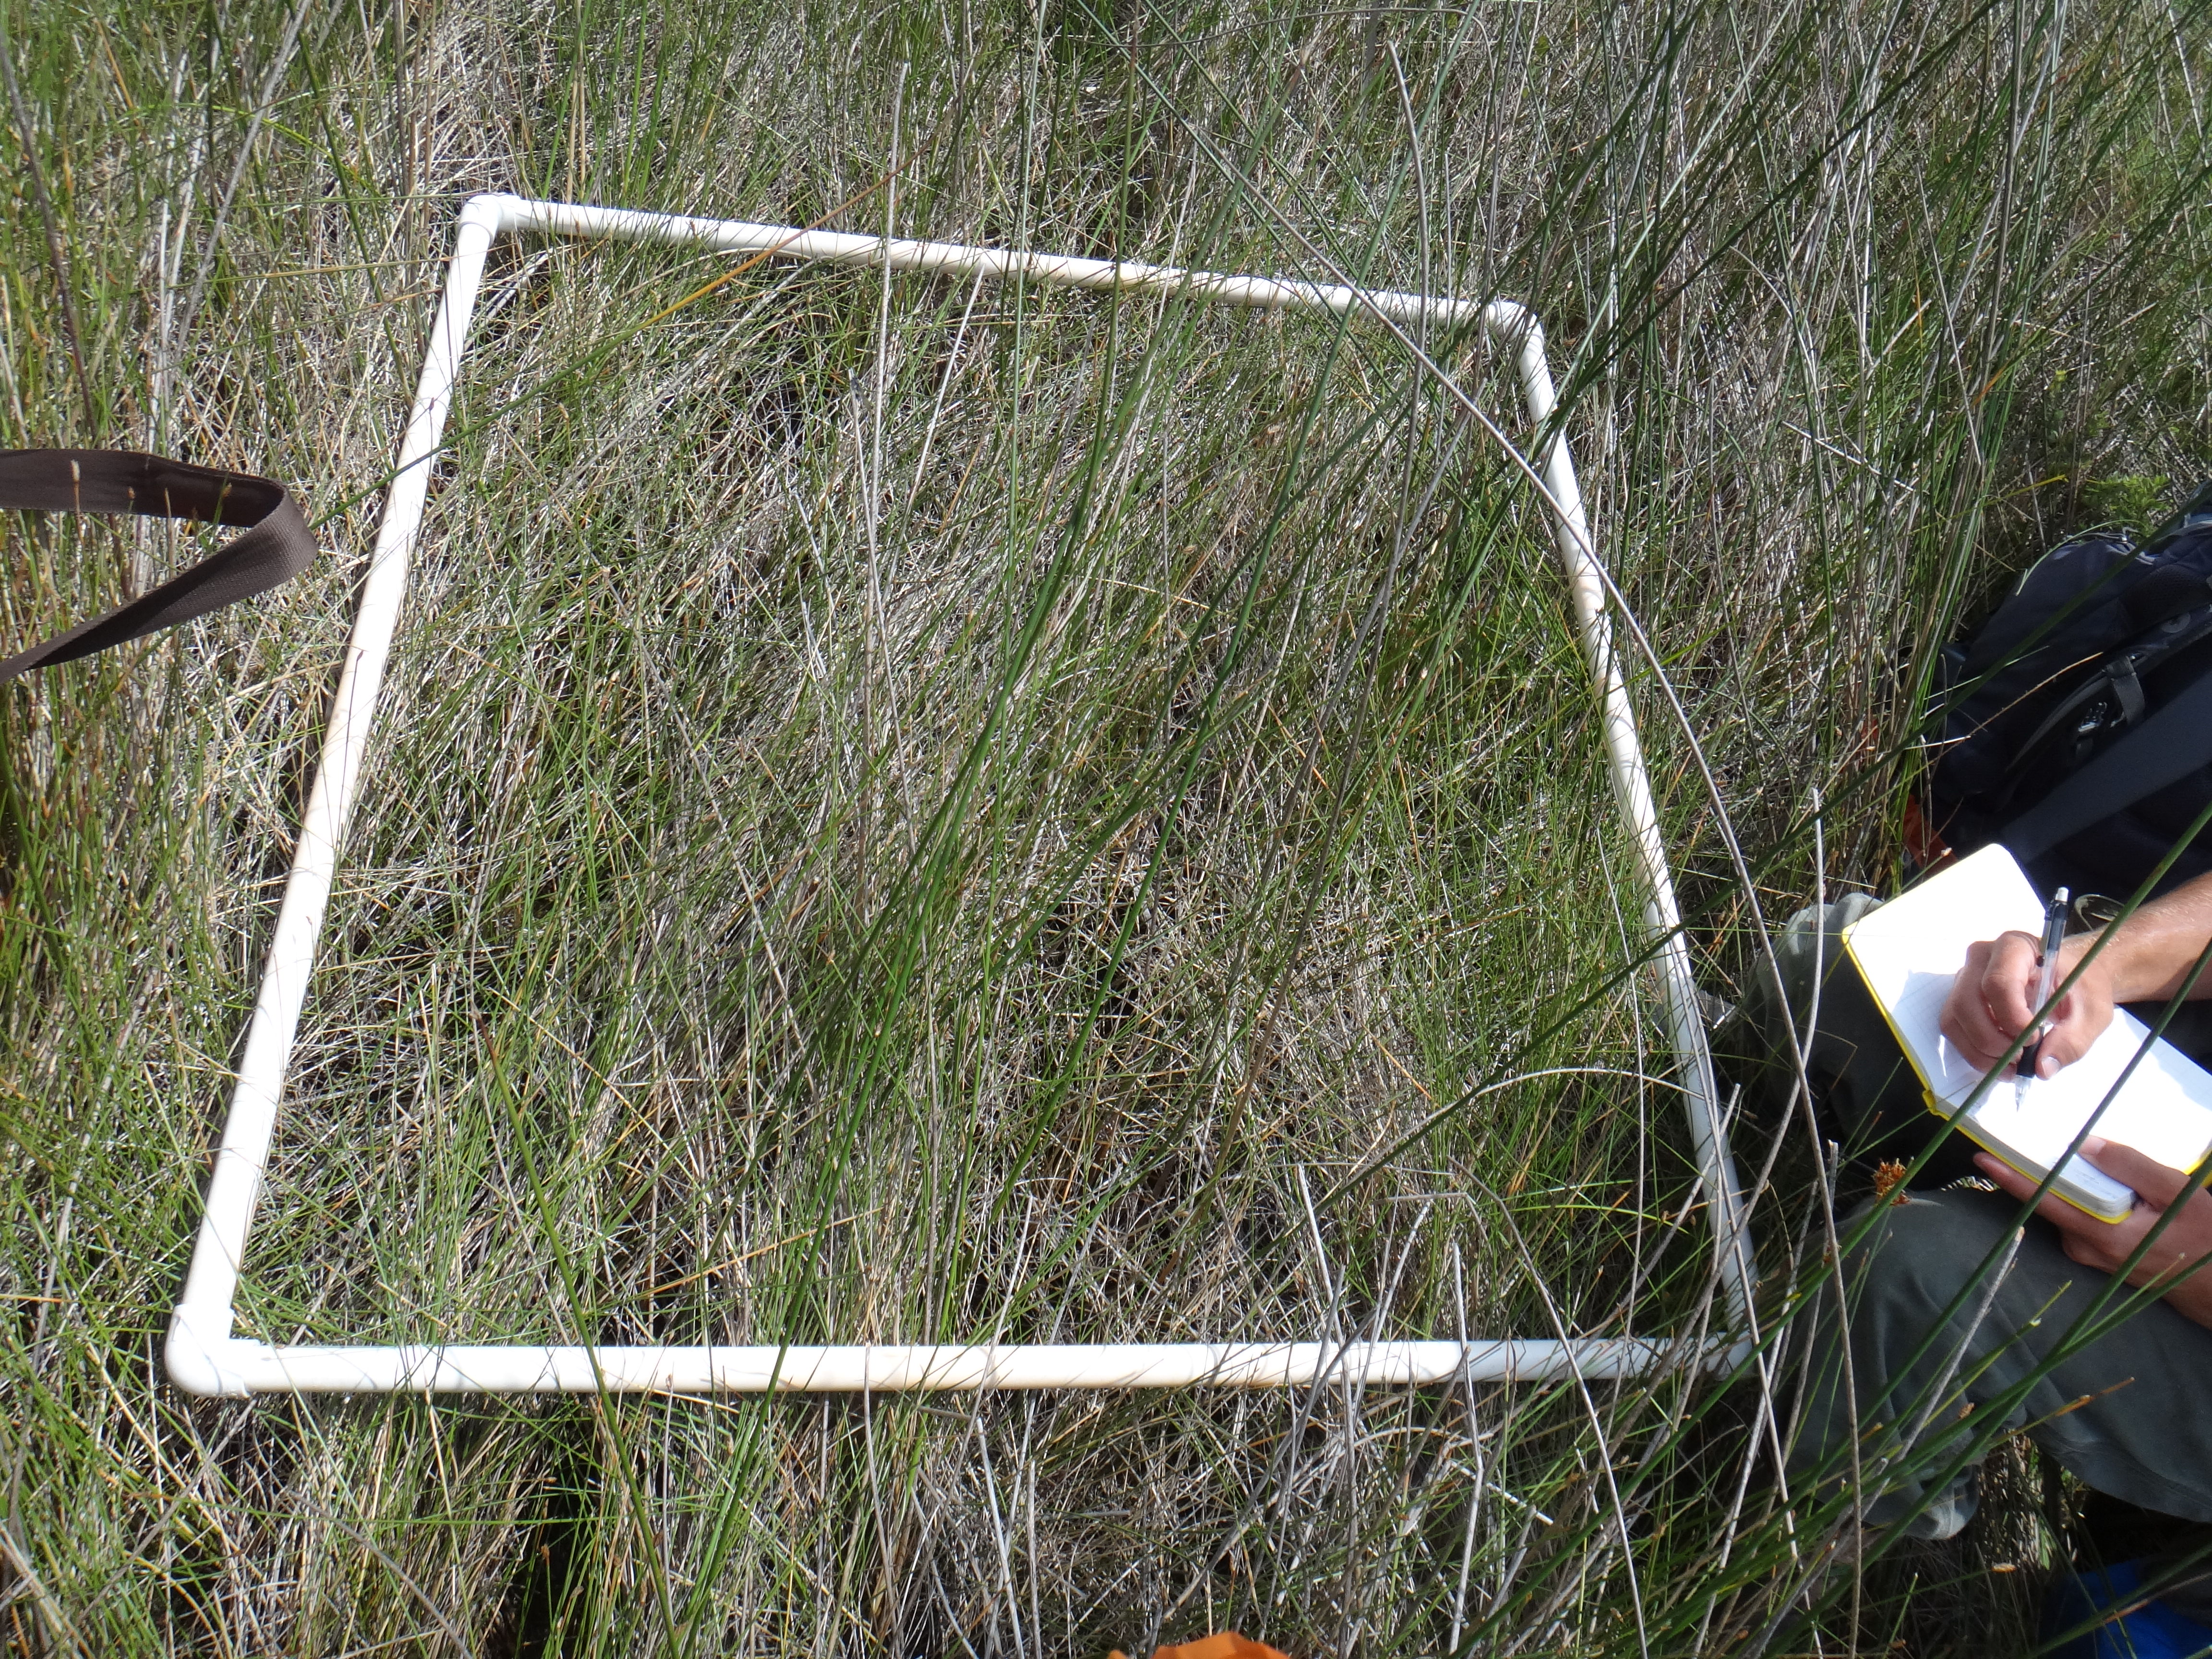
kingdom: Plantae
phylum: Tracheophyta
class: Magnoliopsida
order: Rosales
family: Rosaceae
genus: Dasiphora
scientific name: Dasiphora fruticosa
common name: Shrubby cinquefoil
